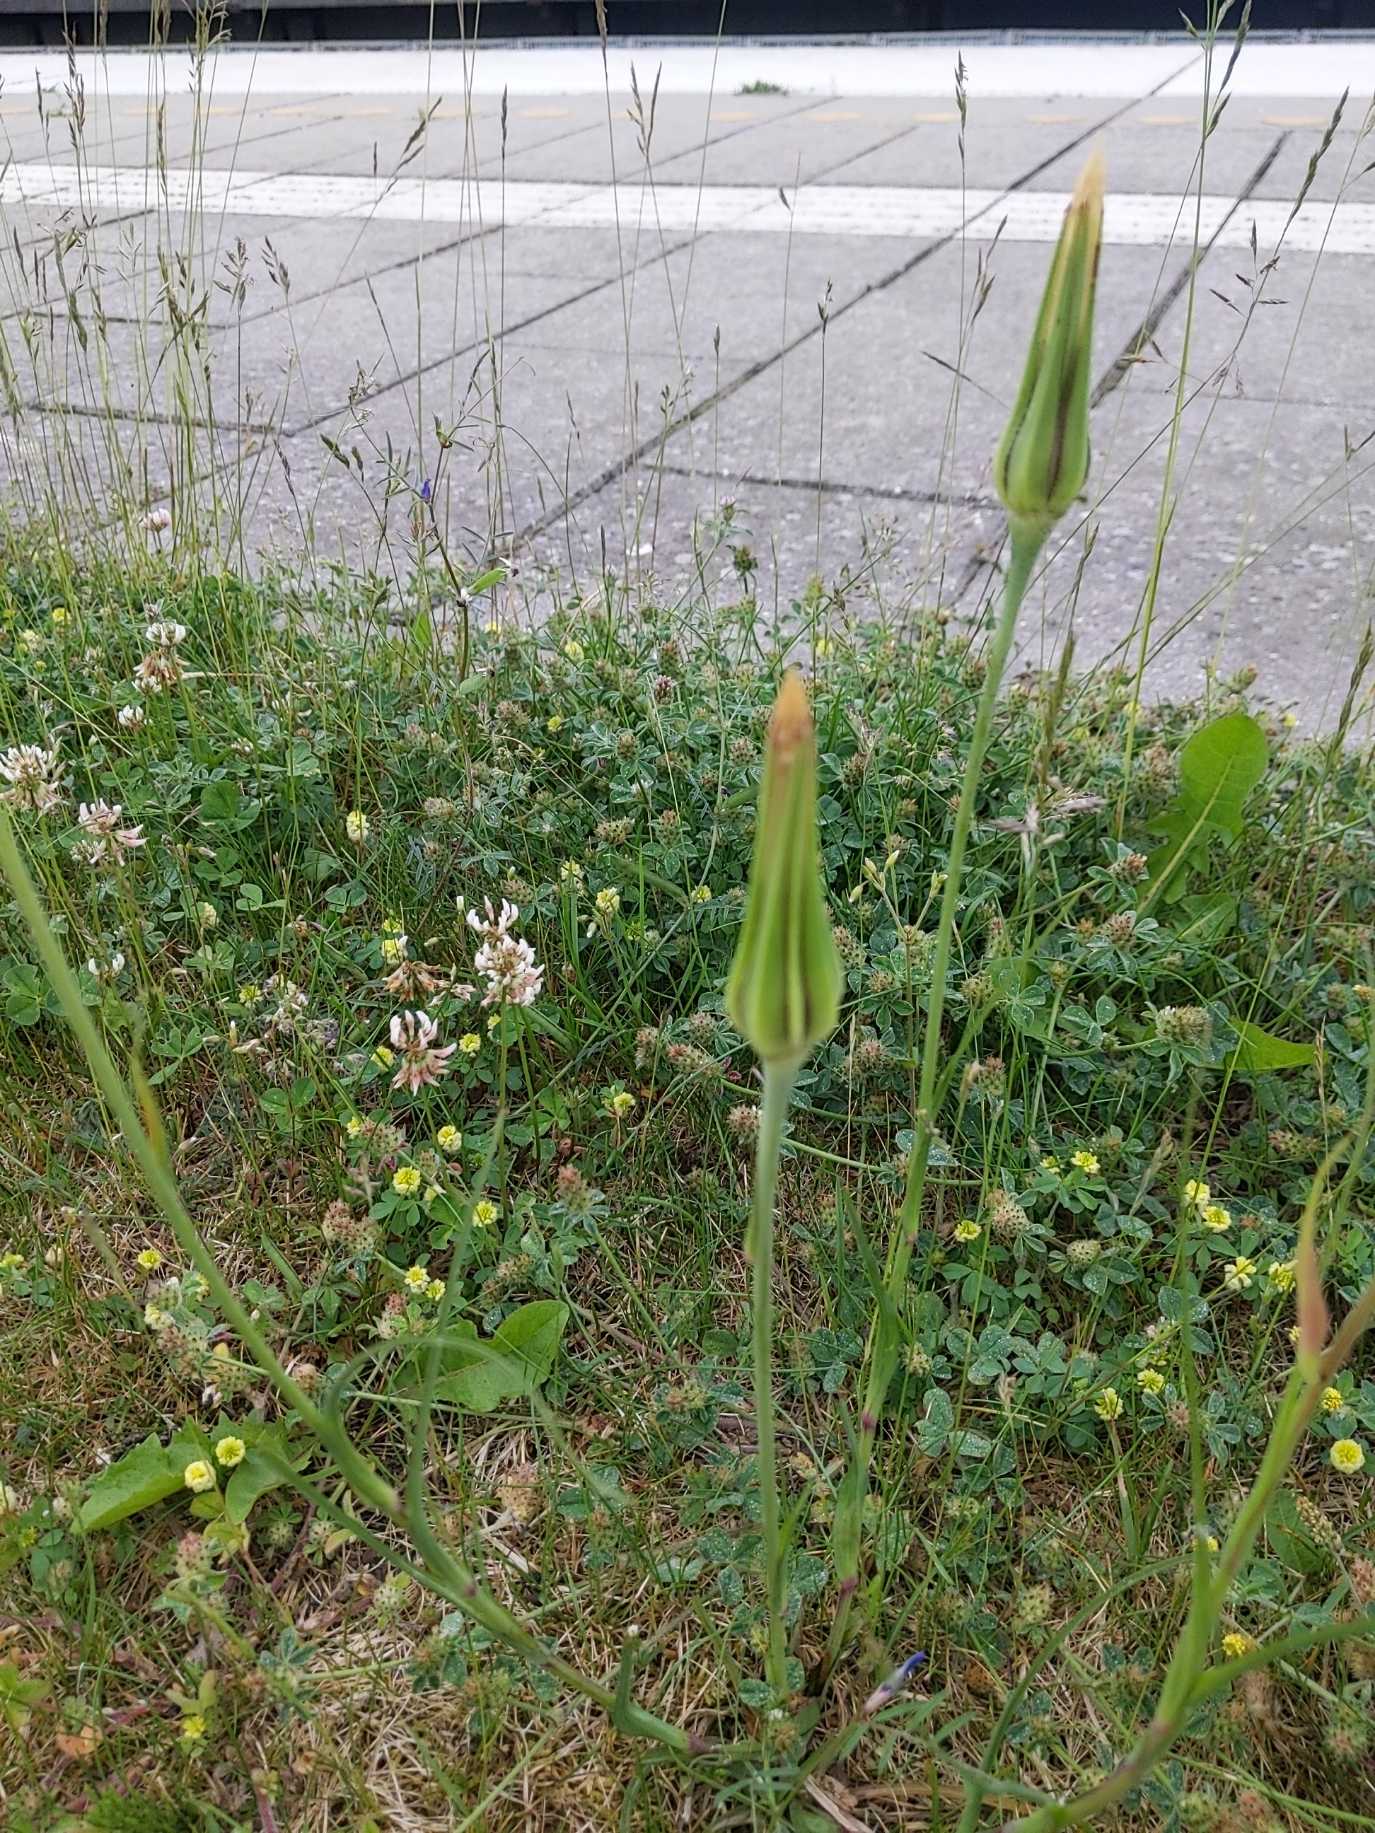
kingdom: Plantae
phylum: Tracheophyta
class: Magnoliopsida
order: Asterales
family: Asteraceae
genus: Tragopogon
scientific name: Tragopogon minor
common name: Småkronet gedeskæg
